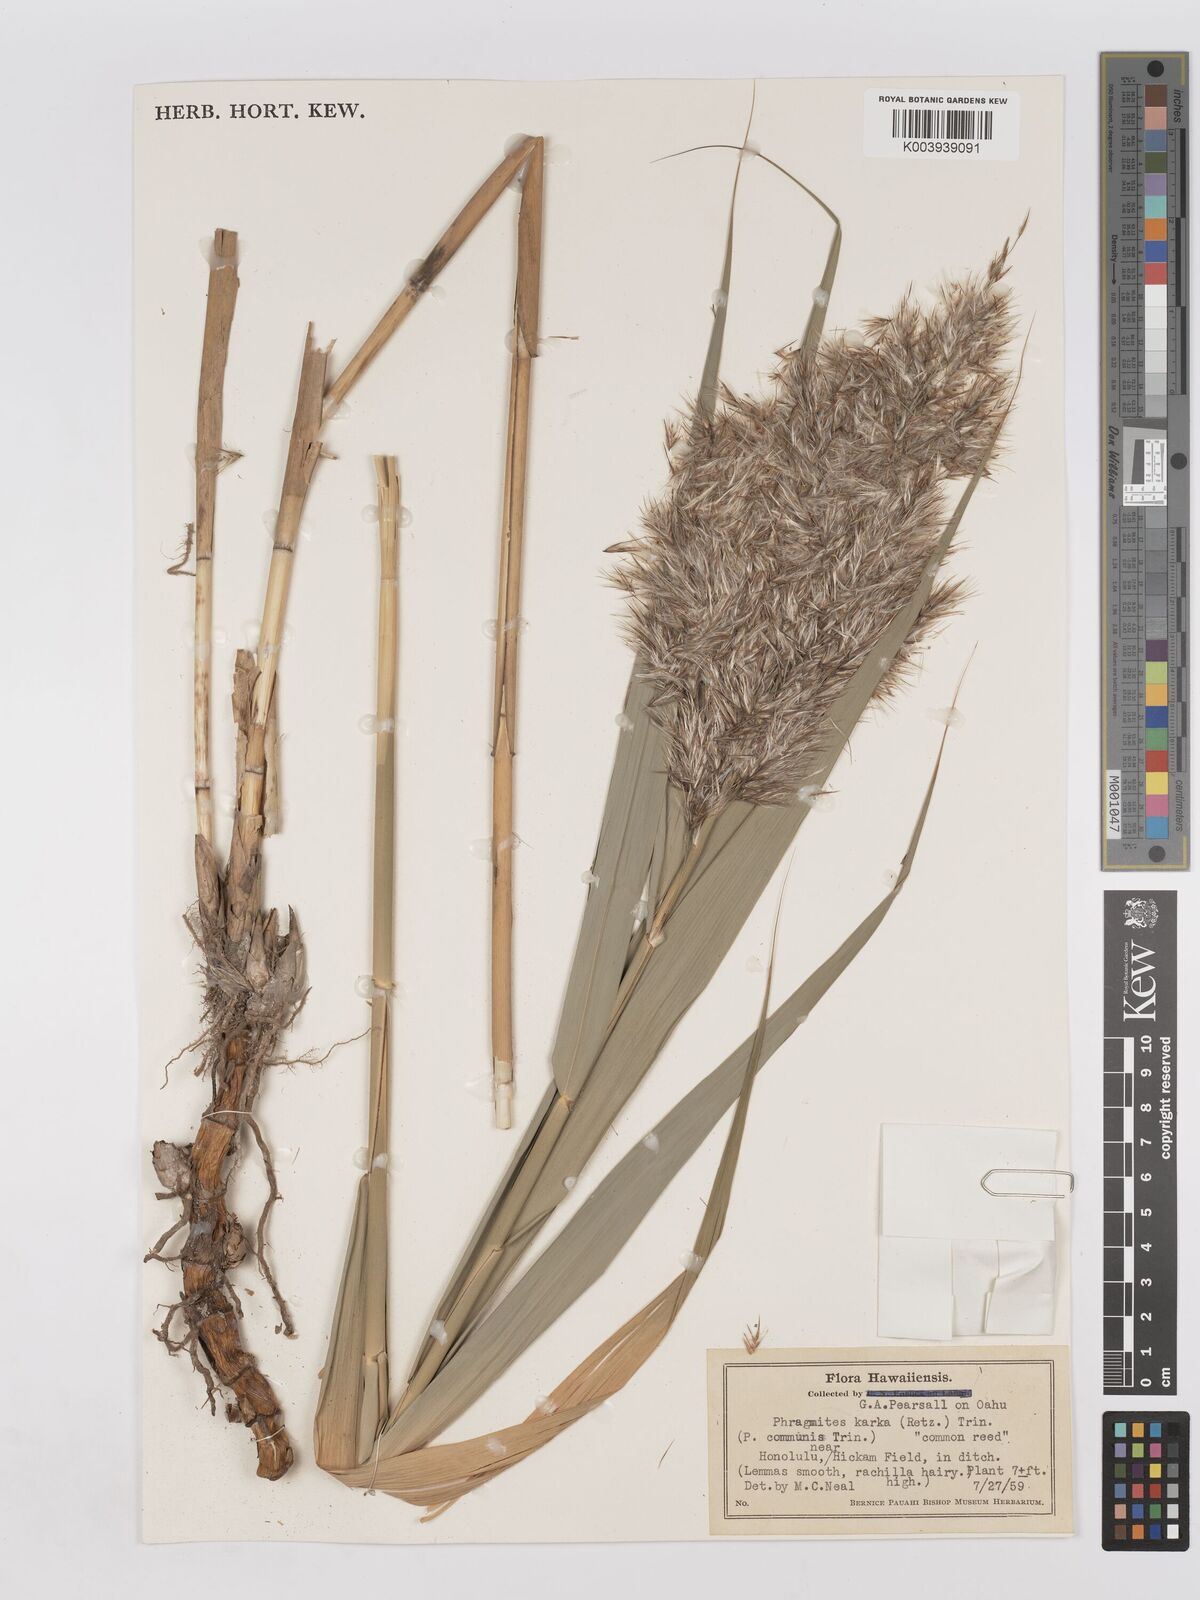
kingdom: Plantae
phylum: Tracheophyta
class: Liliopsida
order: Poales
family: Poaceae
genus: Phragmites
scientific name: Phragmites karka
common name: Tropical reed
